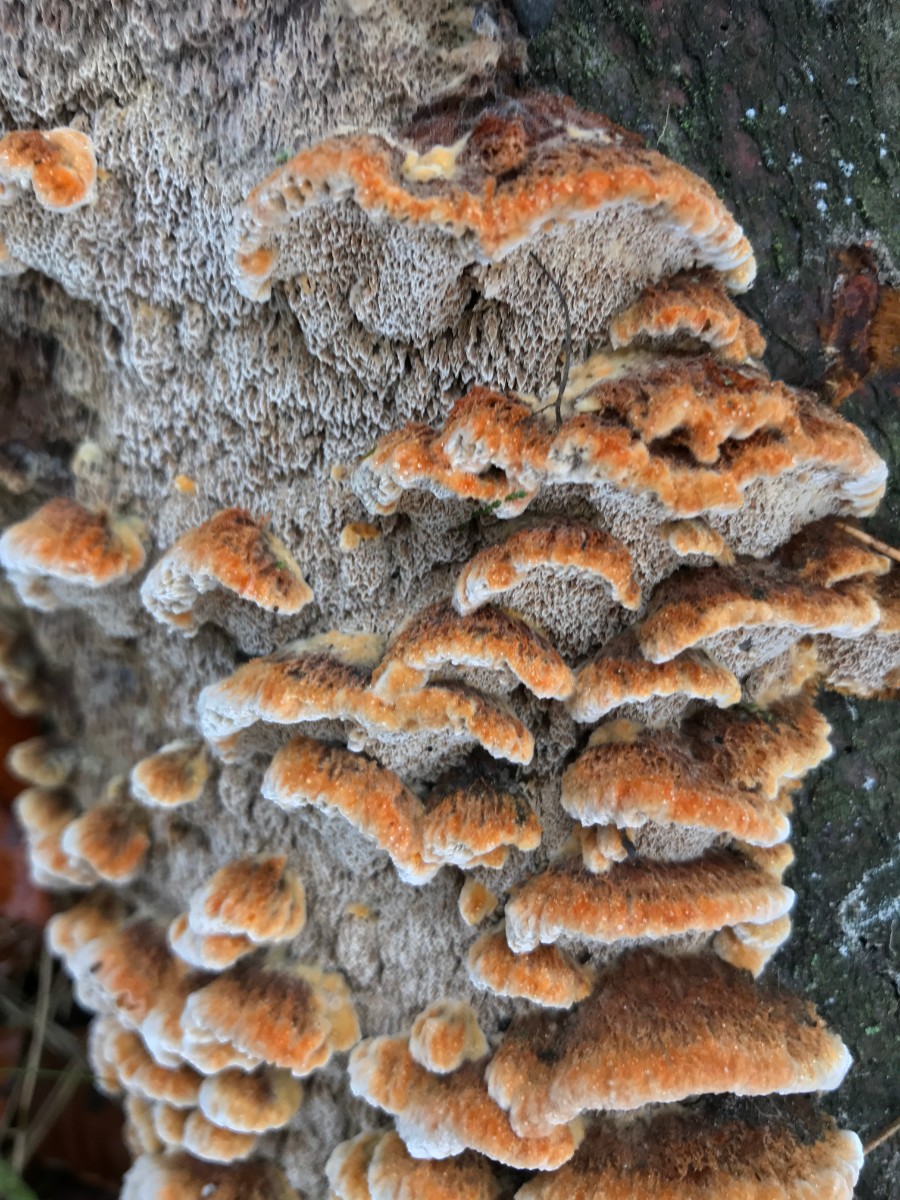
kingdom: Fungi
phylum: Basidiomycota
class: Agaricomycetes
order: Hymenochaetales
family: Hymenochaetaceae
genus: Mensularia
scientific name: Mensularia nodulosa
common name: bøge-spejlporesvamp
